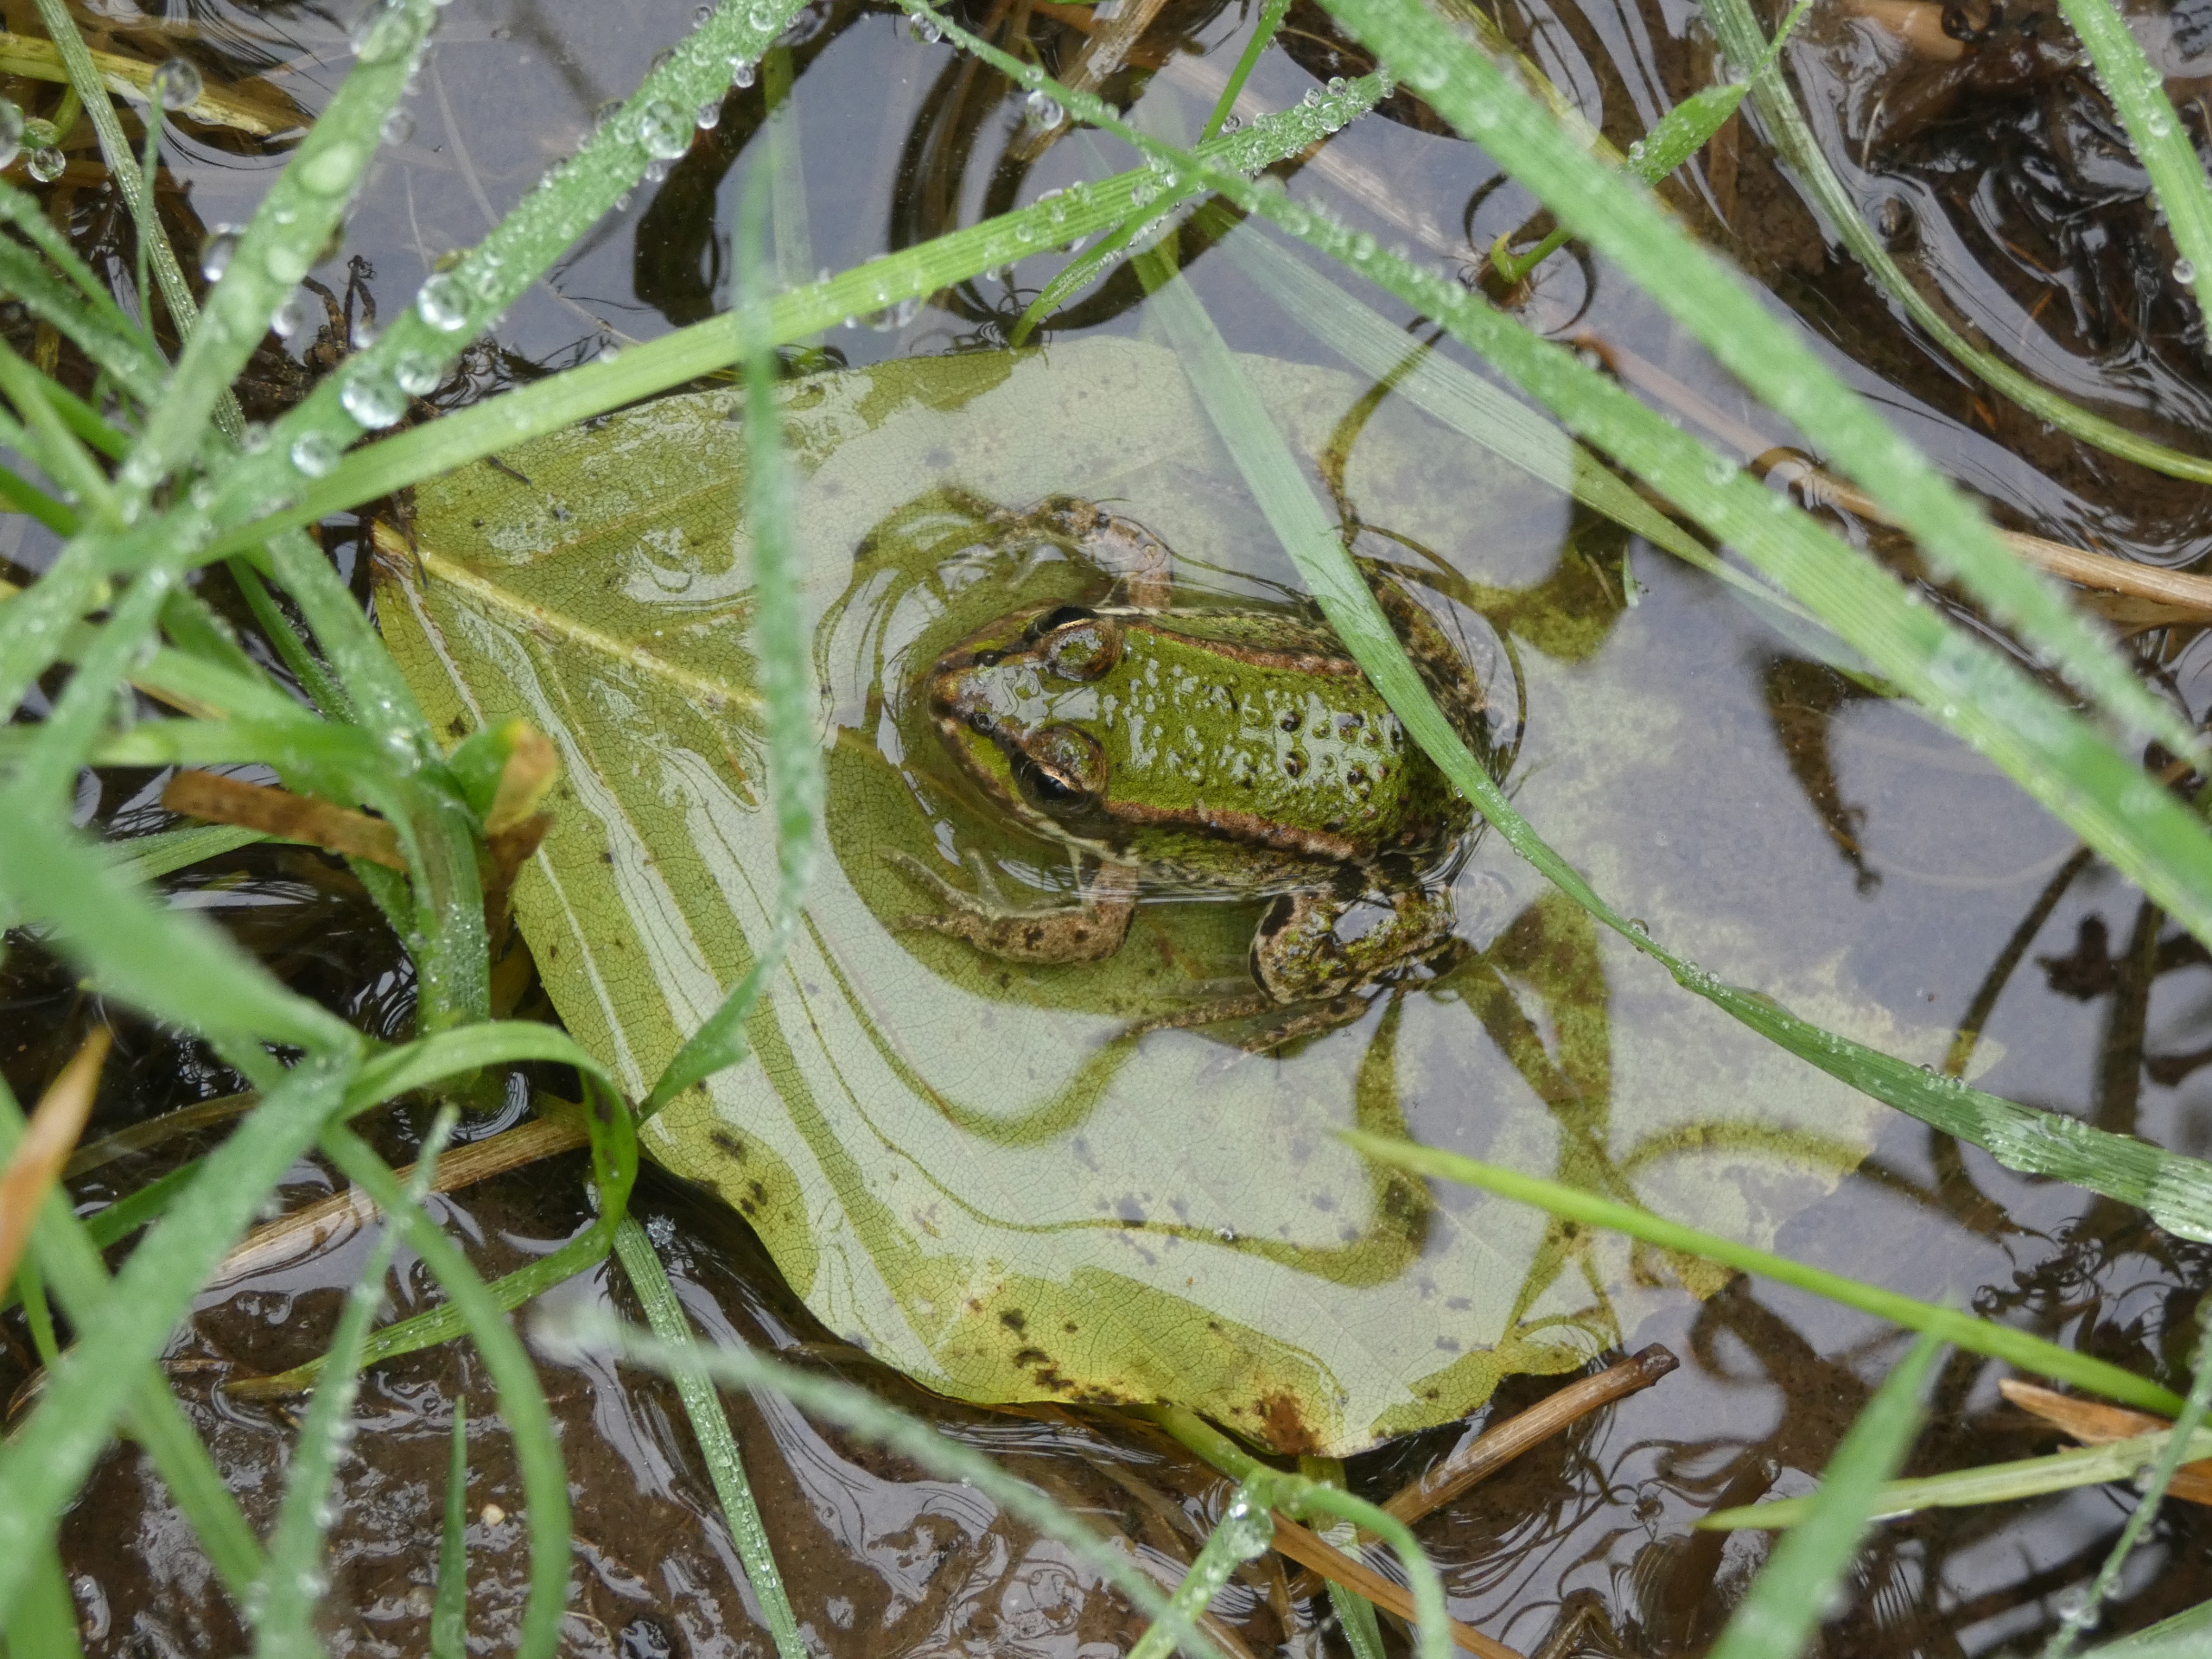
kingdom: Animalia
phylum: Chordata
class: Amphibia
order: Anura
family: Ranidae
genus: Pelophylax
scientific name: Pelophylax lessonae
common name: Grøn frø
